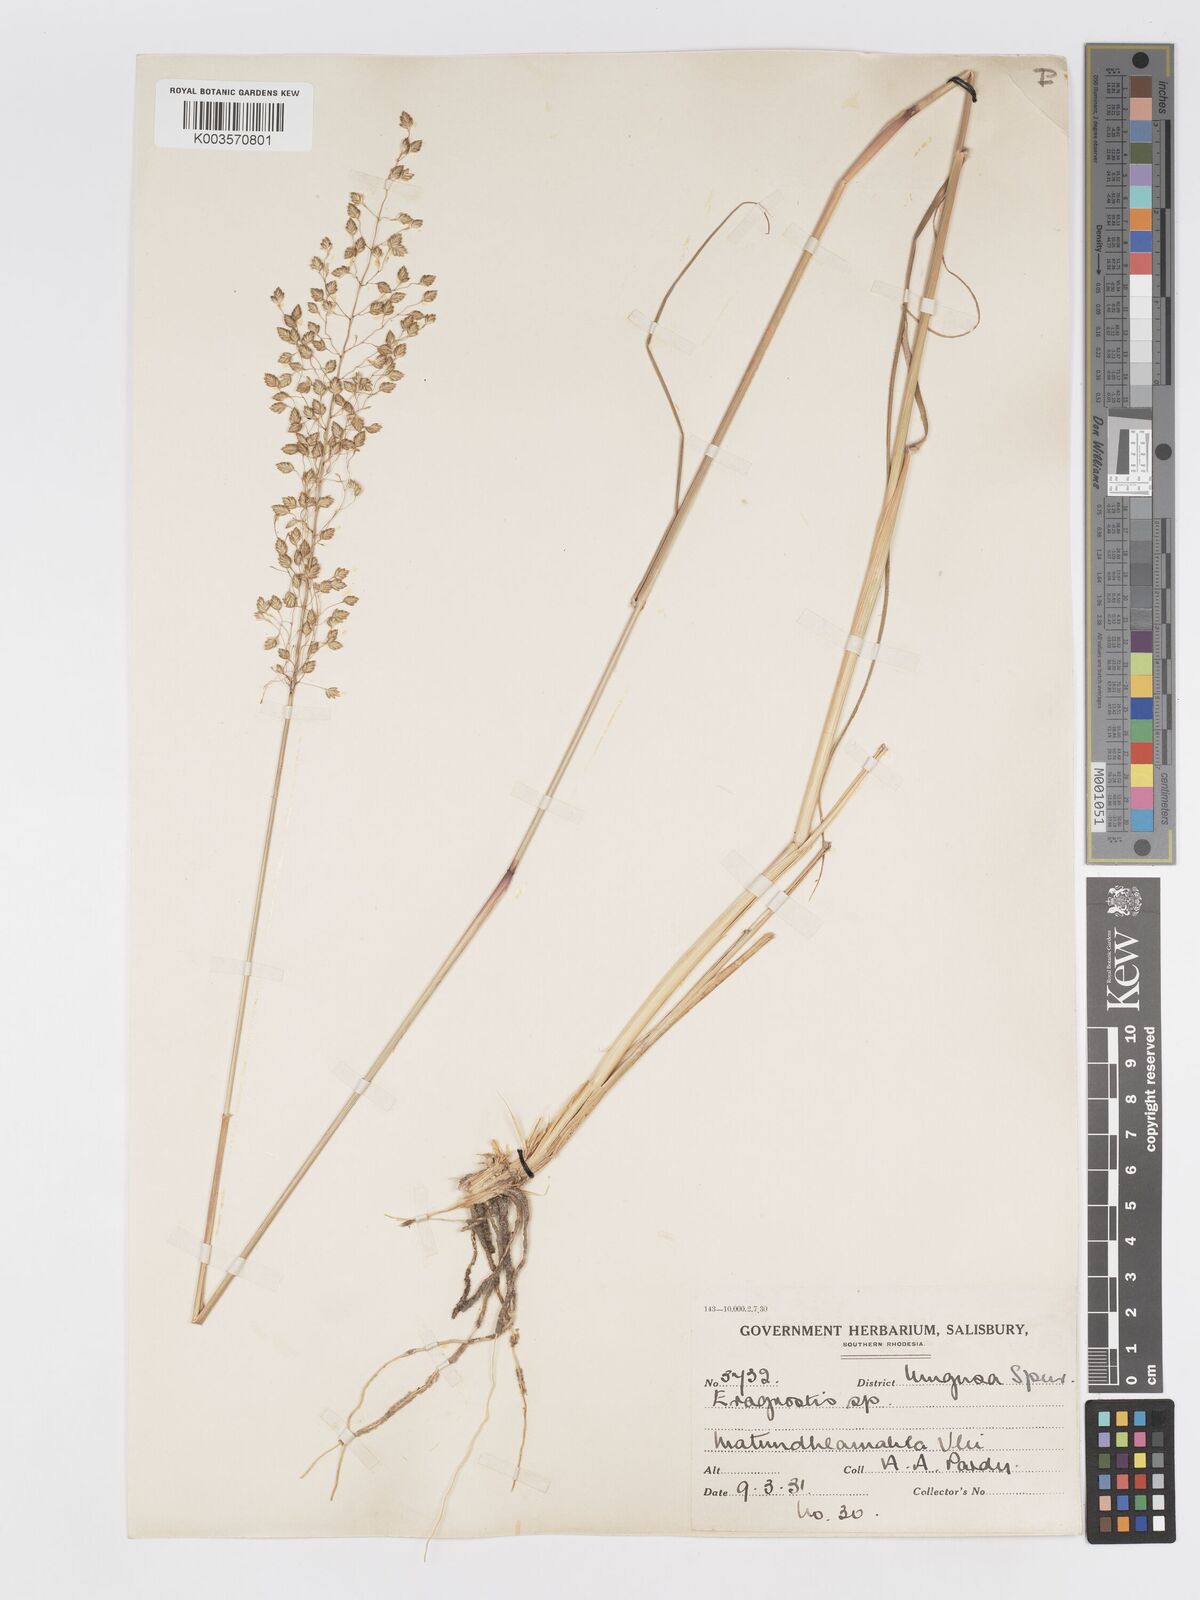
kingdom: Plantae
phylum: Tracheophyta
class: Liliopsida
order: Poales
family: Poaceae
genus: Eragrostis
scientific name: Eragrostis cimicina
